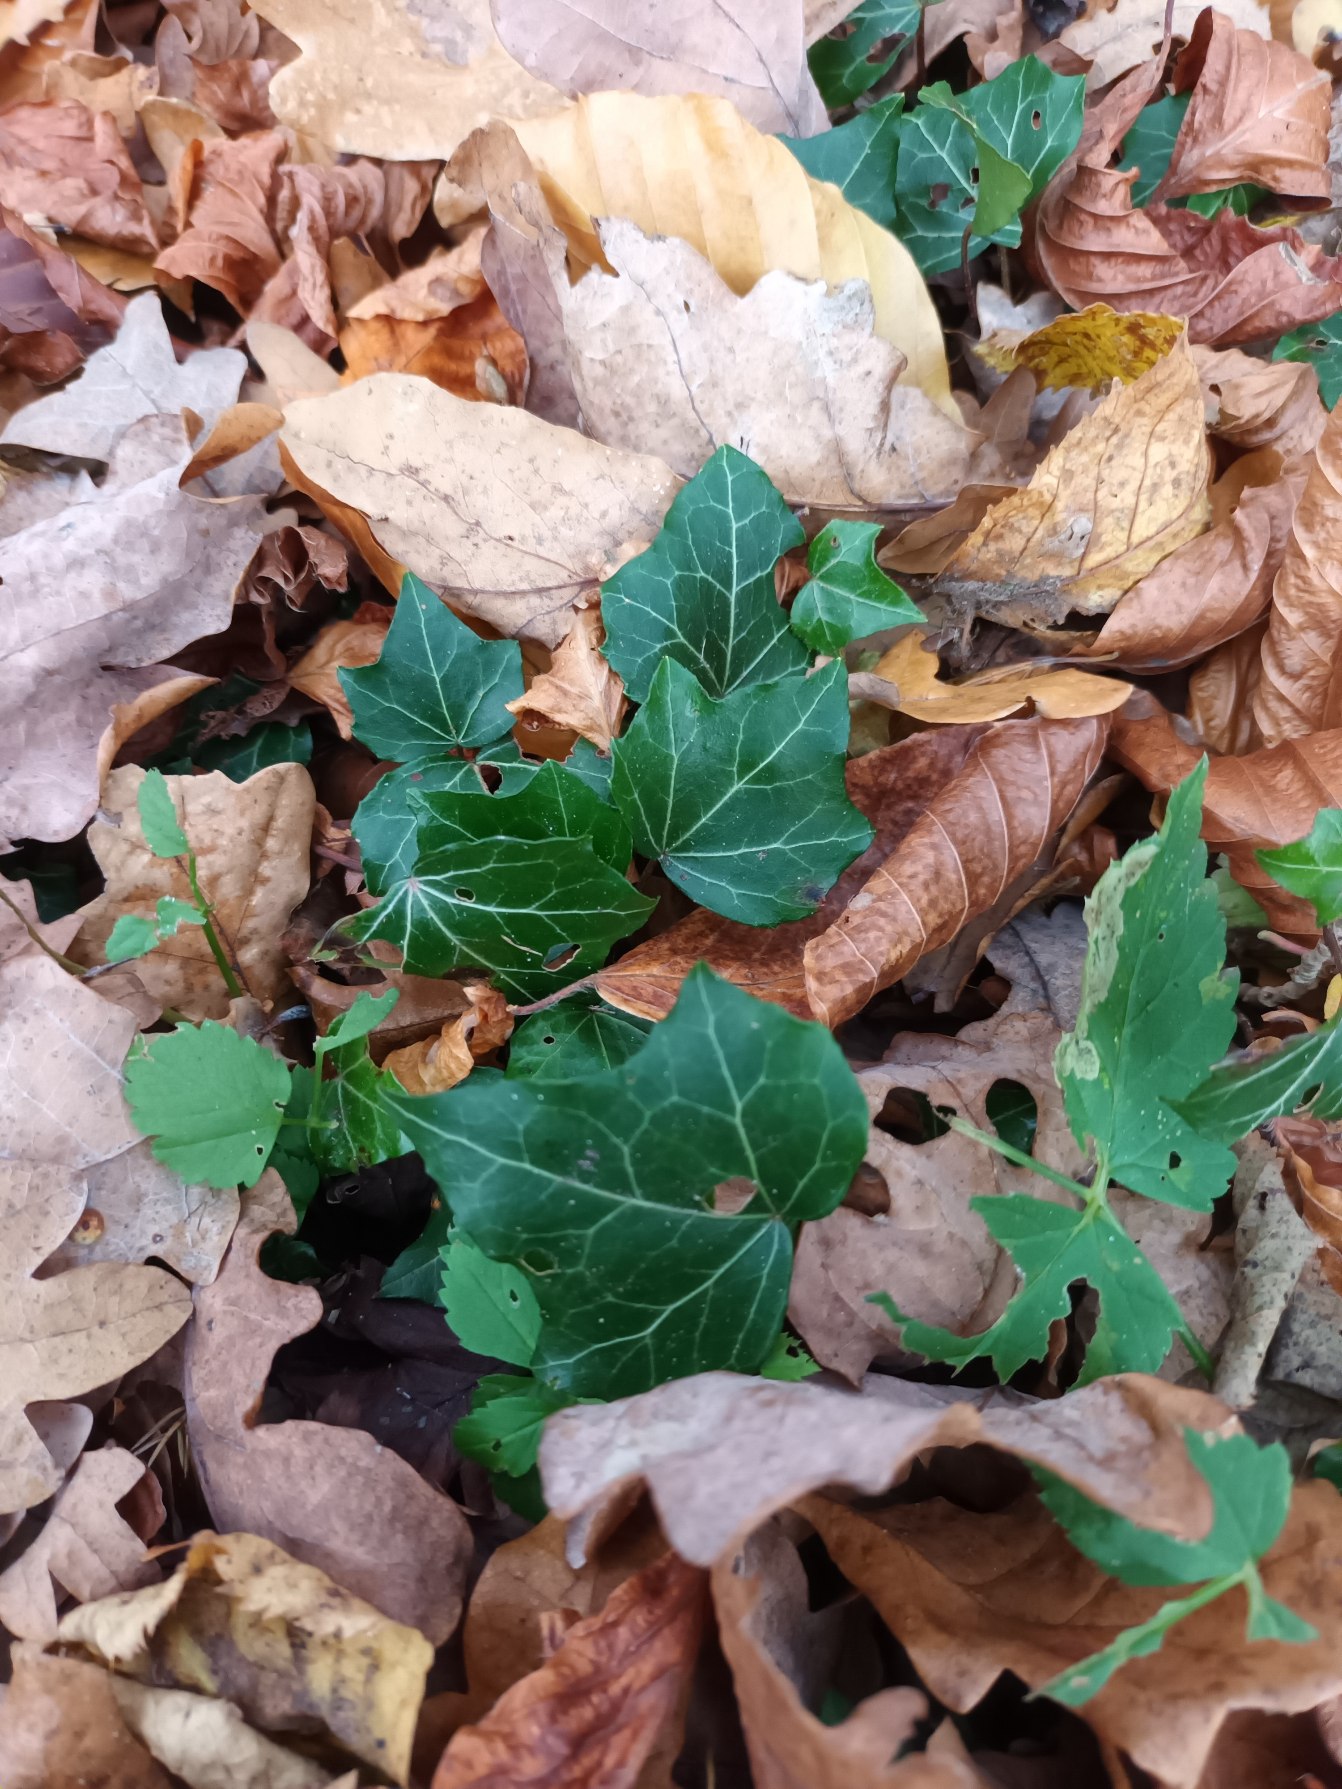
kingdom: Plantae
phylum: Tracheophyta
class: Magnoliopsida
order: Apiales
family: Araliaceae
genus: Hedera
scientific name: Hedera helix
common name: Vedbend
